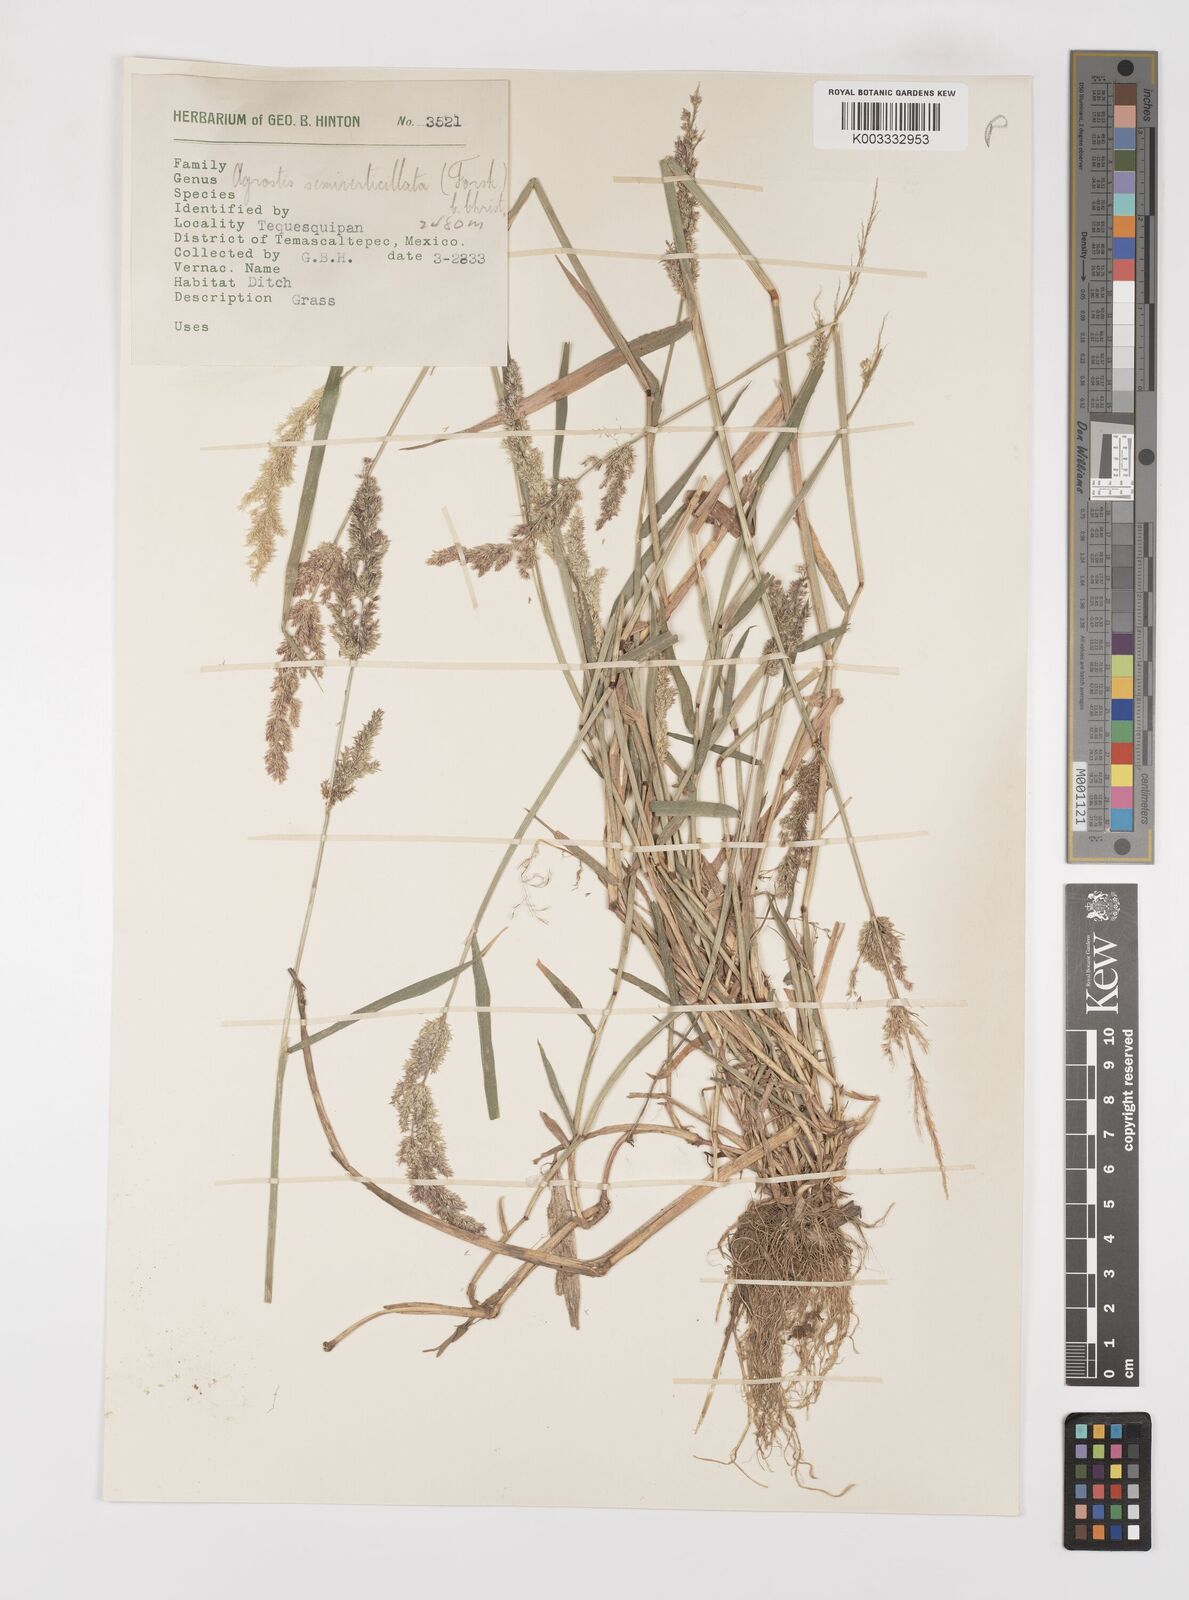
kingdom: Plantae
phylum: Tracheophyta
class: Liliopsida
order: Poales
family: Poaceae
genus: Polypogon
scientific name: Polypogon viridis
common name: Water bent
